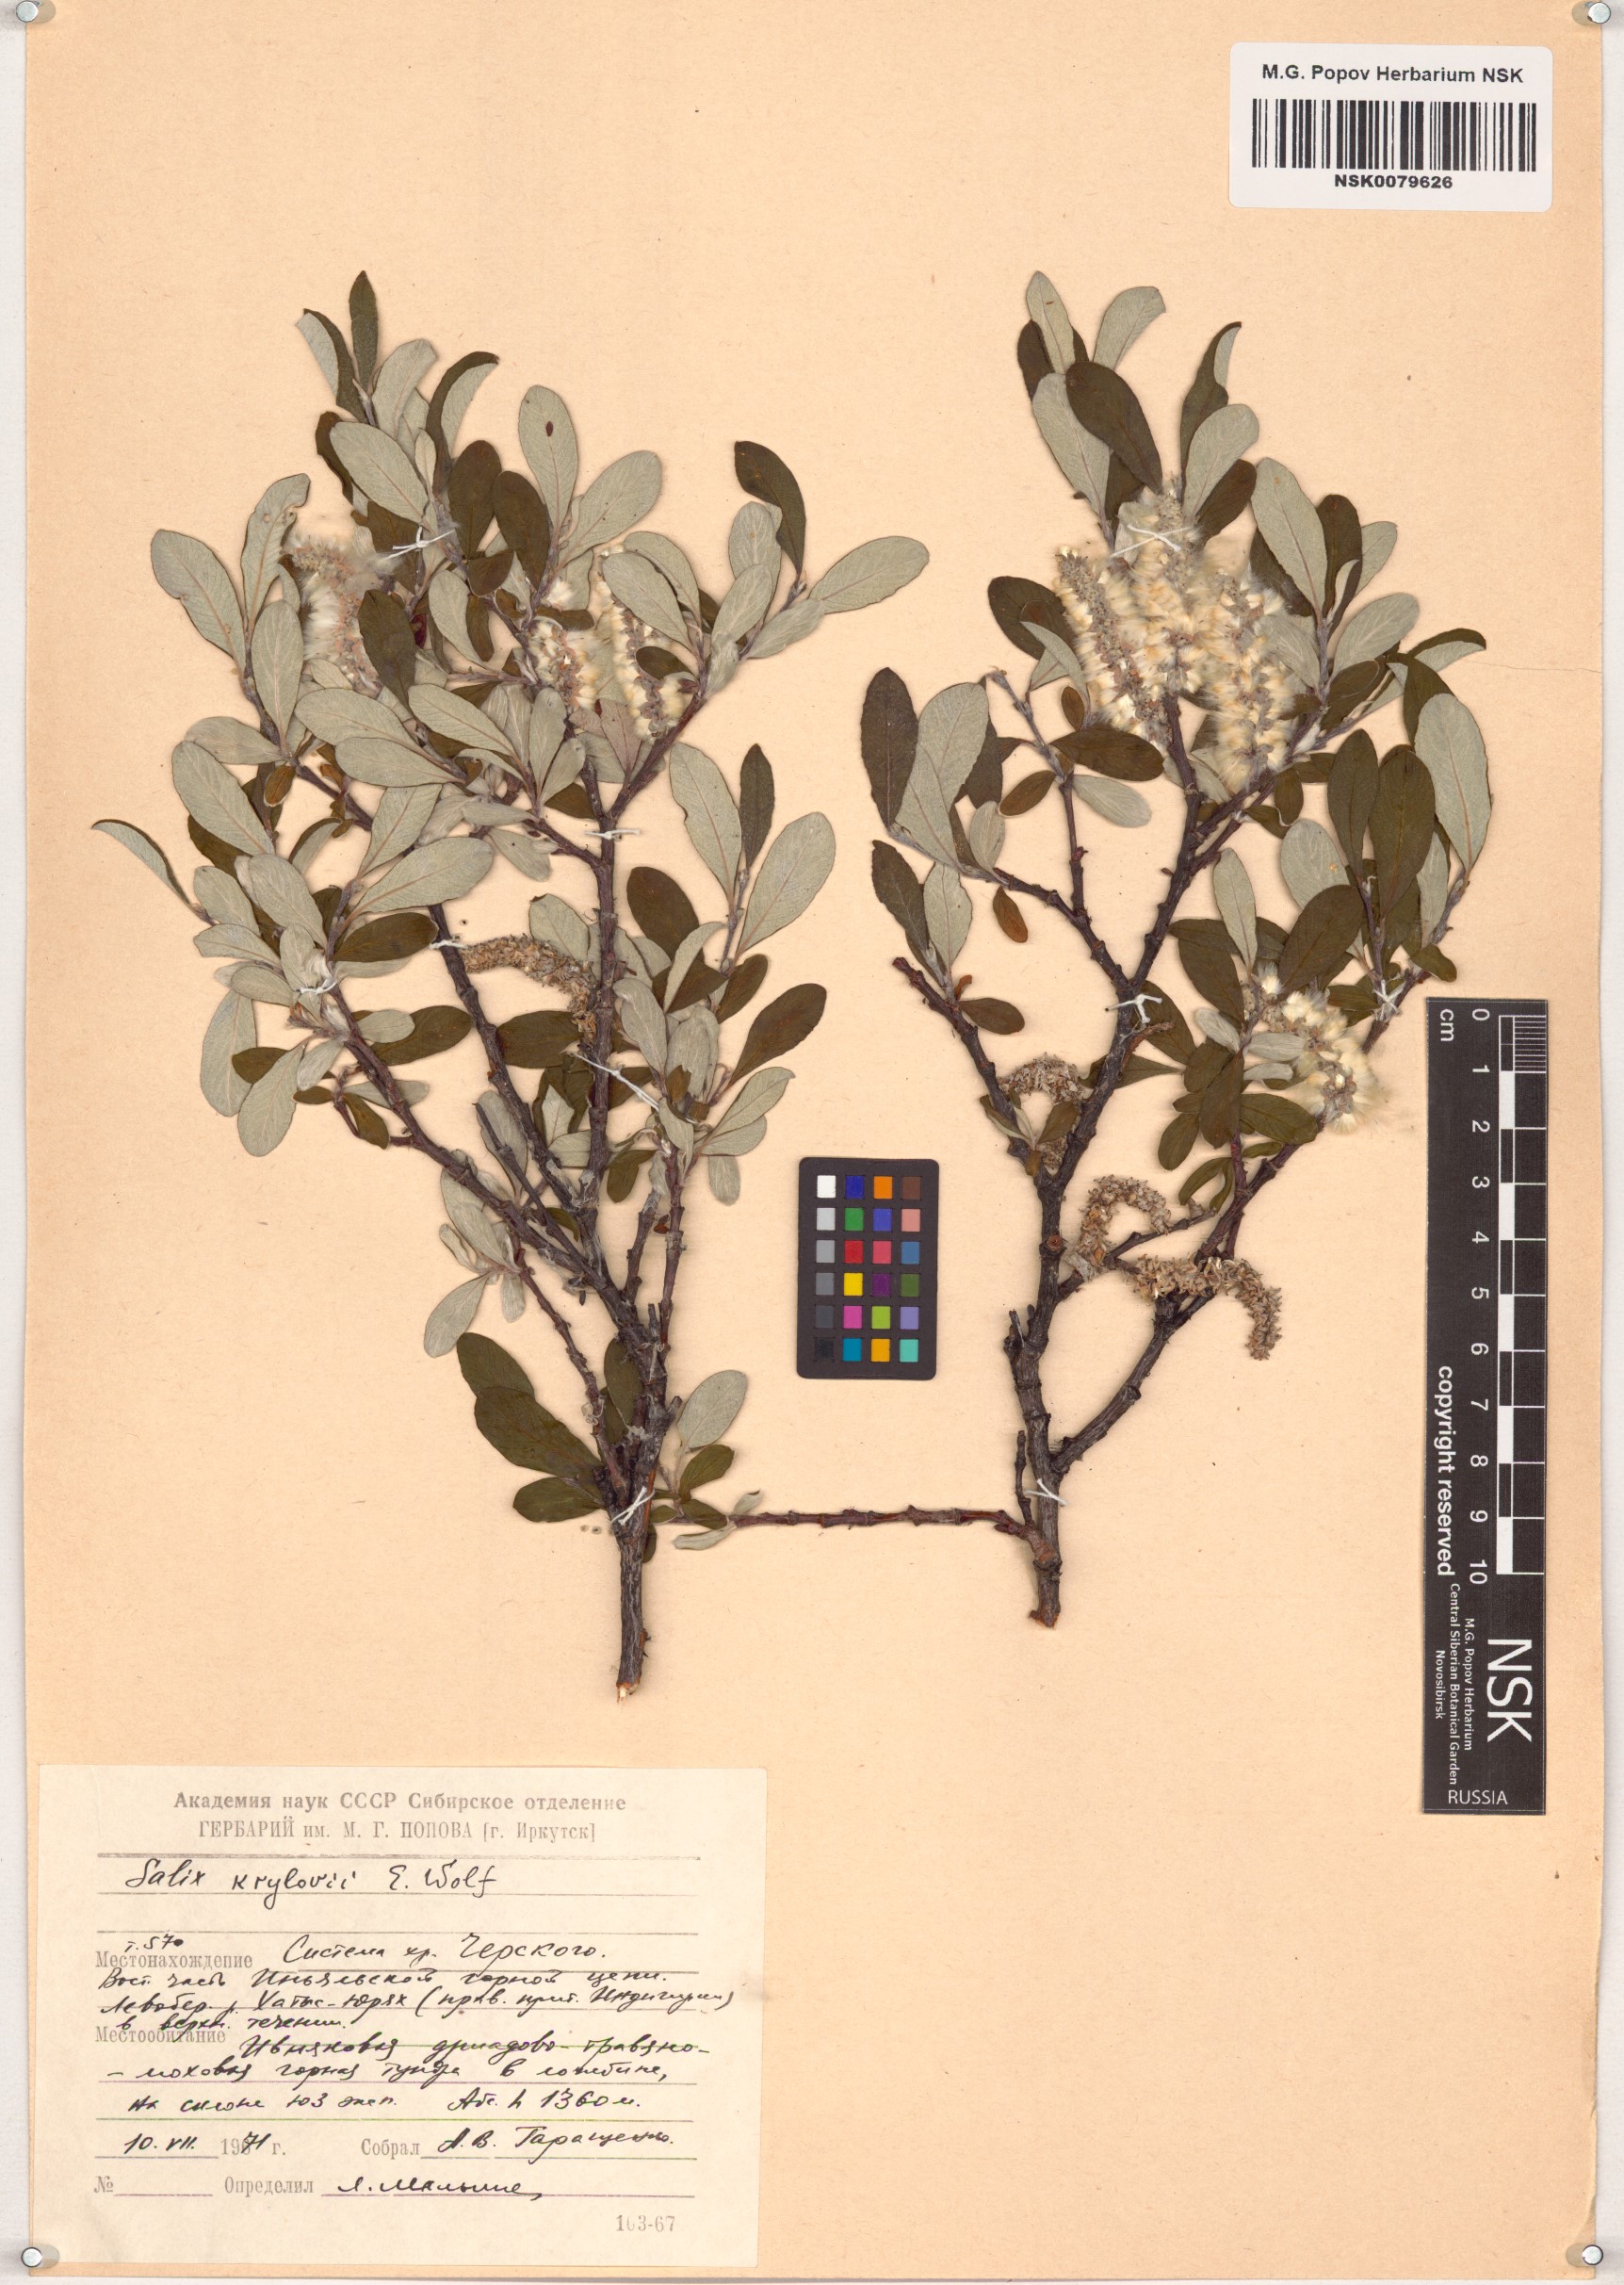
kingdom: Plantae
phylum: Tracheophyta
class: Magnoliopsida
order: Malpighiales
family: Salicaceae
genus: Salix
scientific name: Salix krylovii
